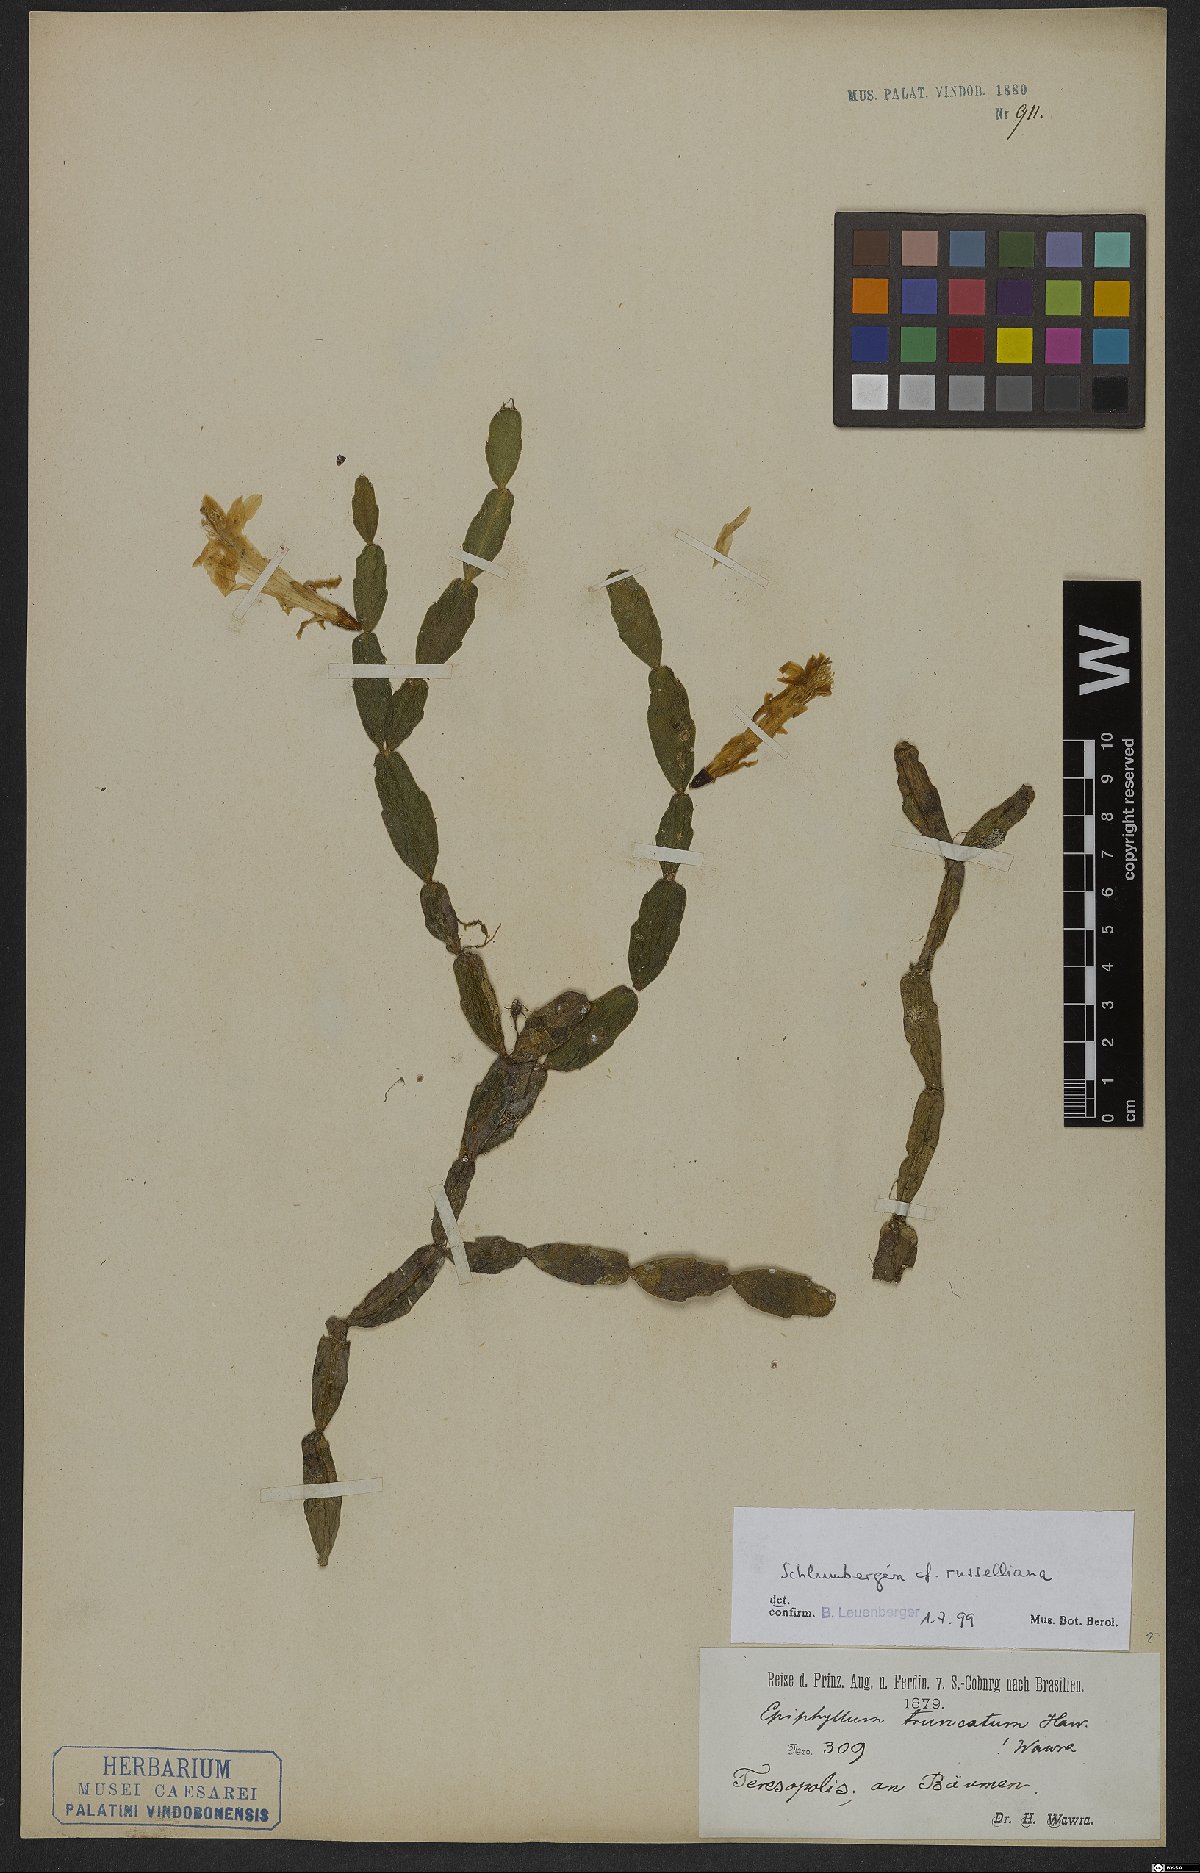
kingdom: Plantae
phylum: Tracheophyta
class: Magnoliopsida
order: Caryophyllales
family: Cactaceae
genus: Schlumbergera
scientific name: Schlumbergera russeliana
